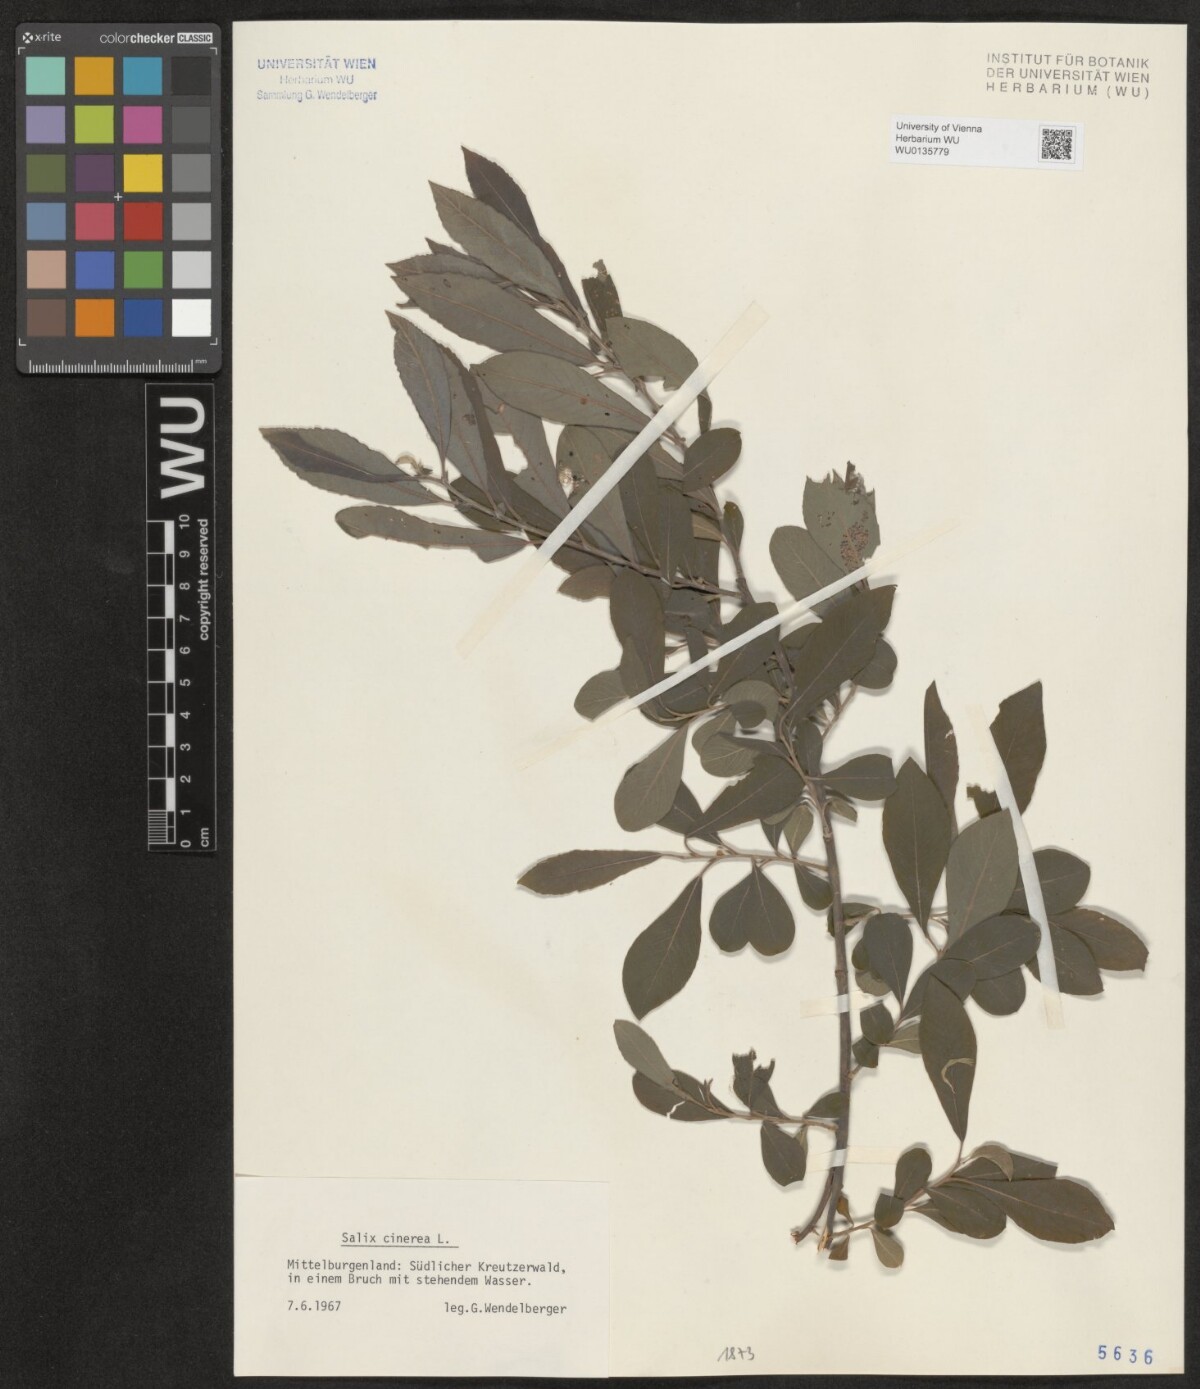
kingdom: Plantae
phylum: Tracheophyta
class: Magnoliopsida
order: Malpighiales
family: Salicaceae
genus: Salix
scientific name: Salix cinerea
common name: Common sallow
